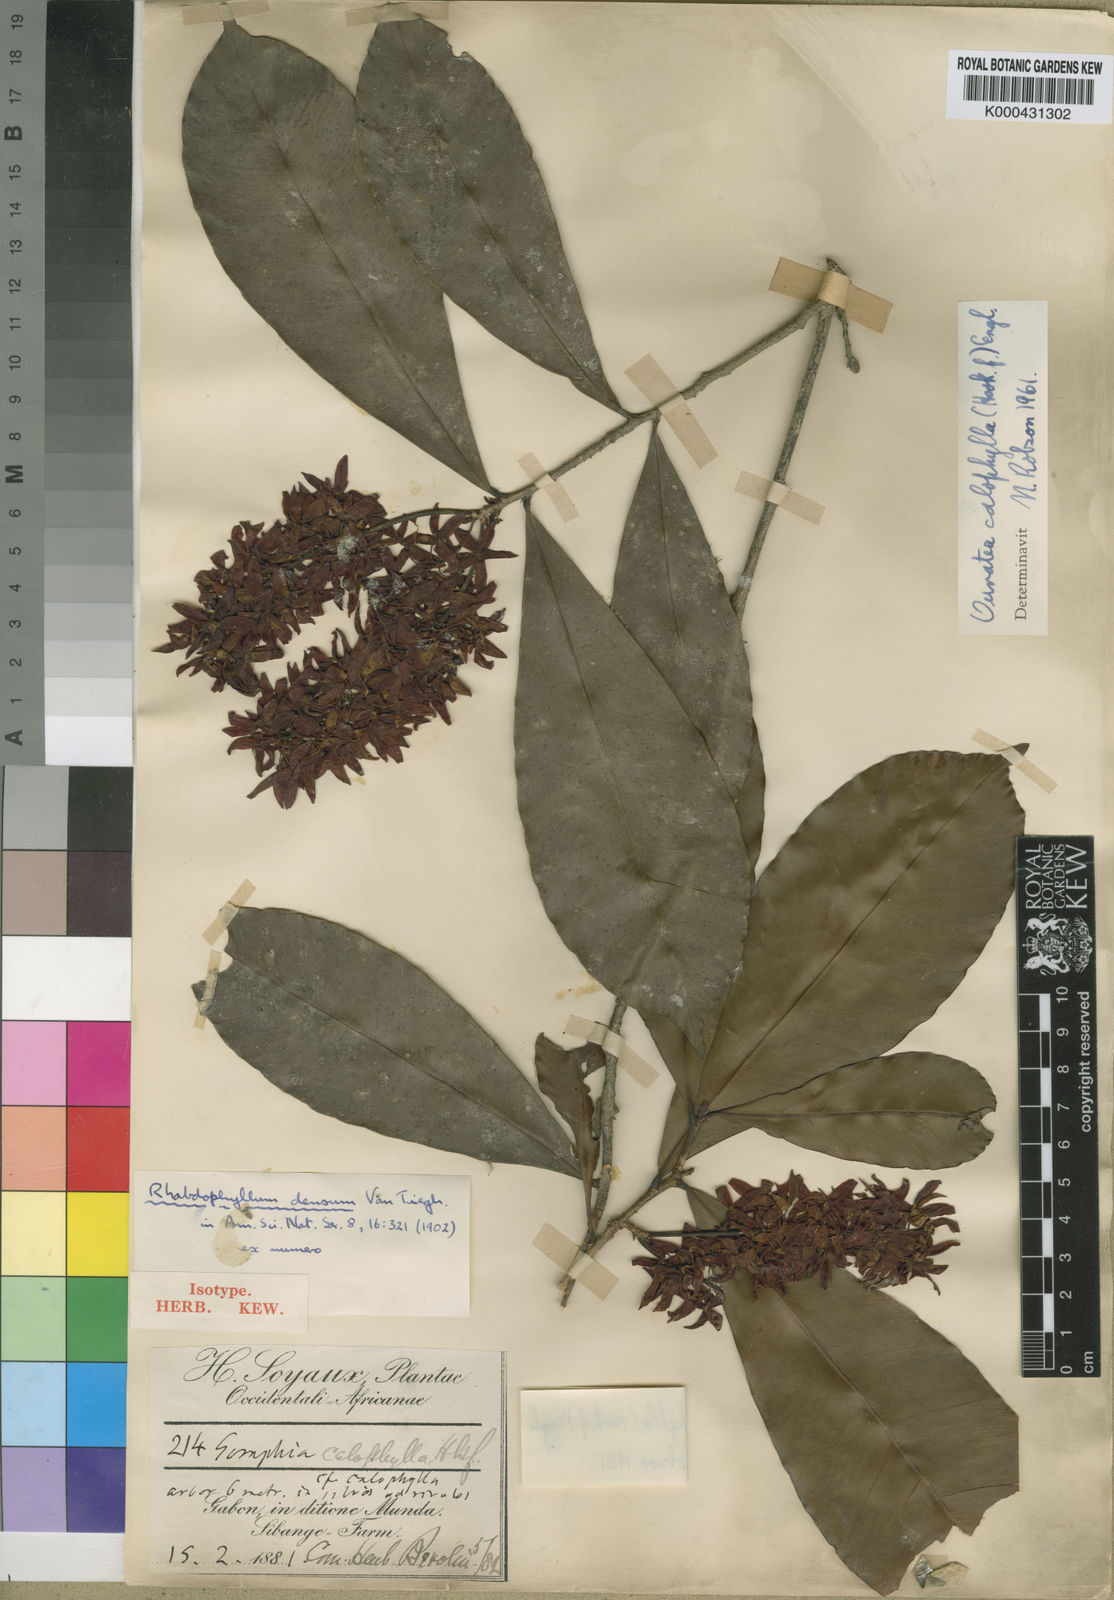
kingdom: Plantae
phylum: Tracheophyta
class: Magnoliopsida
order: Malpighiales
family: Ochnaceae
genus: Rhabdophyllum
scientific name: Rhabdophyllum calophyllum
